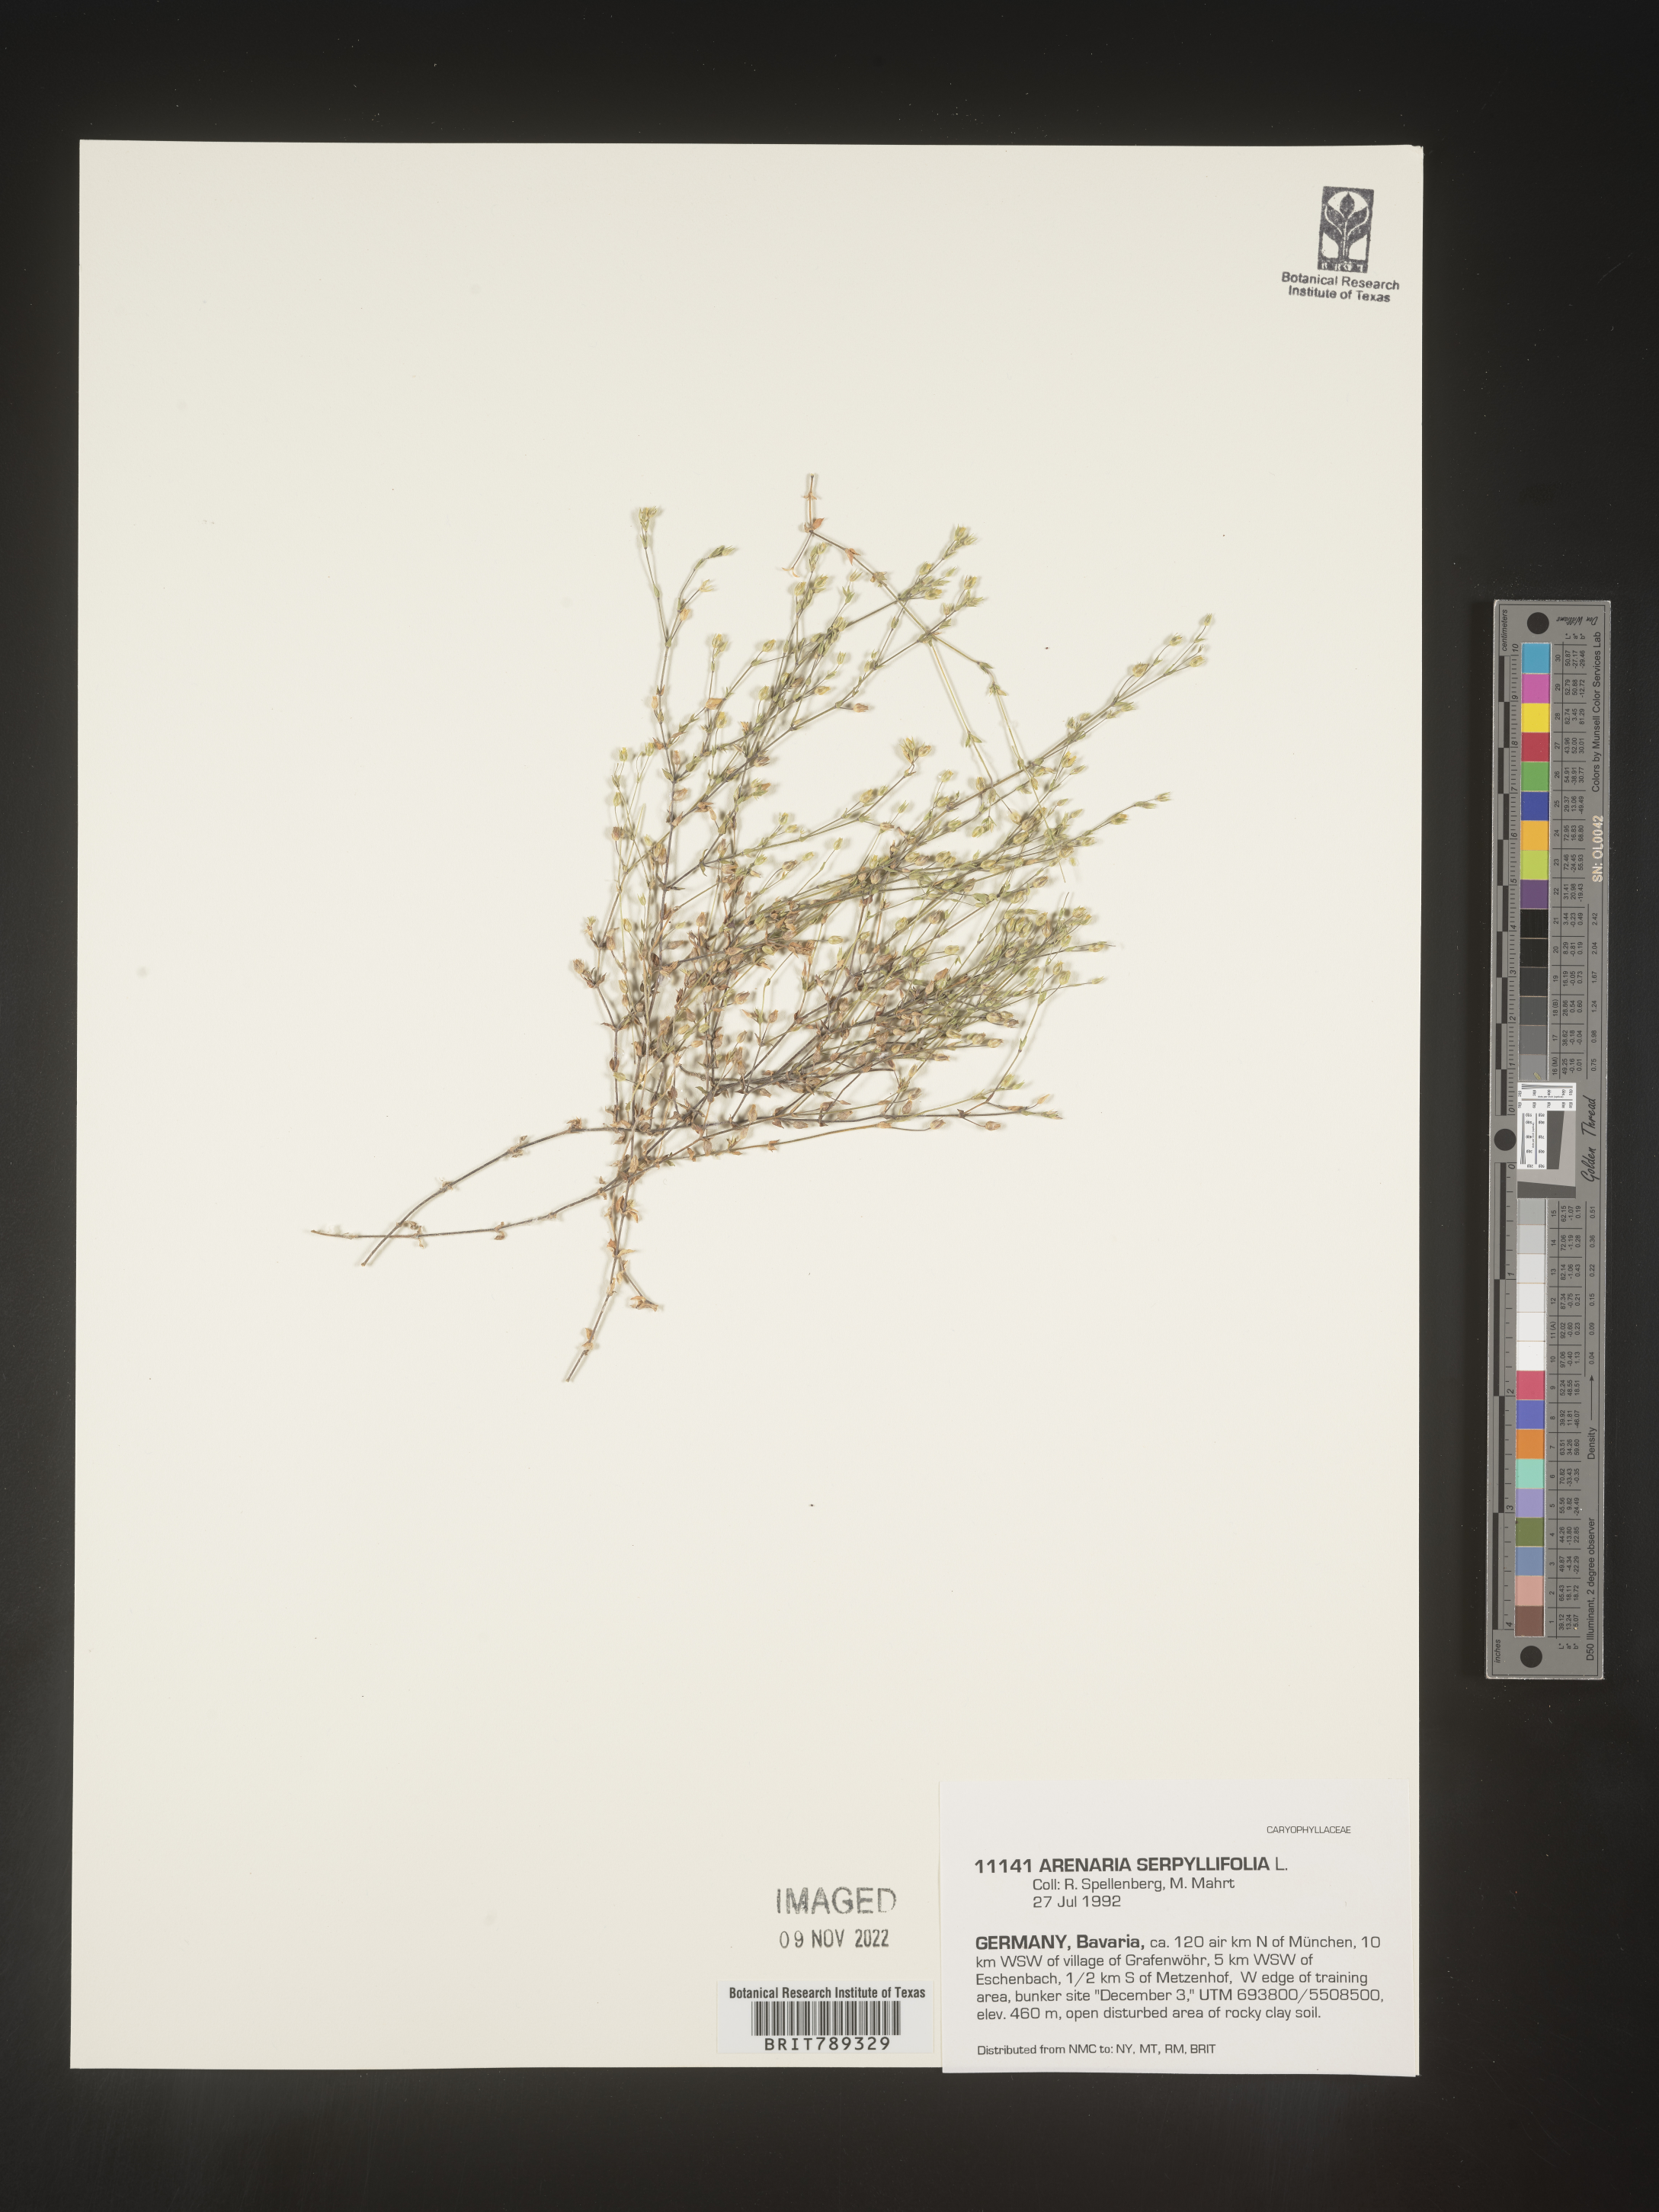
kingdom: Plantae
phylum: Tracheophyta
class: Magnoliopsida
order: Caryophyllales
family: Caryophyllaceae
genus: Arenaria
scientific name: Arenaria
